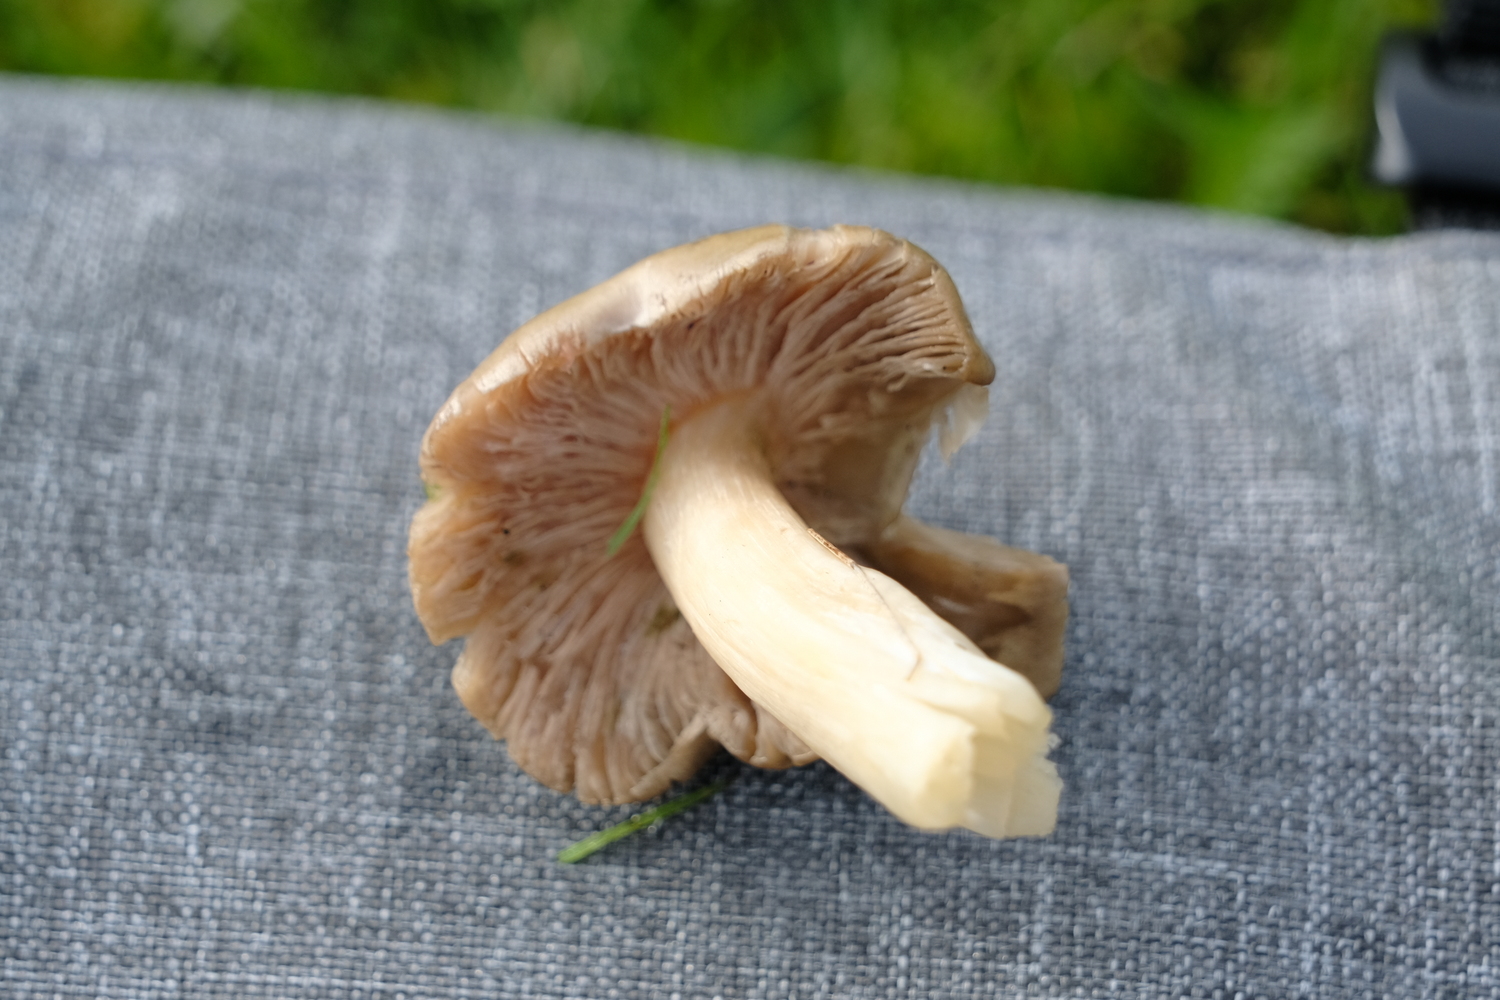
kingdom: Fungi
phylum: Basidiomycota
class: Agaricomycetes
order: Agaricales
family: Entolomataceae
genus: Entoloma
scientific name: Entoloma prunuloides
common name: mel-rødblad
